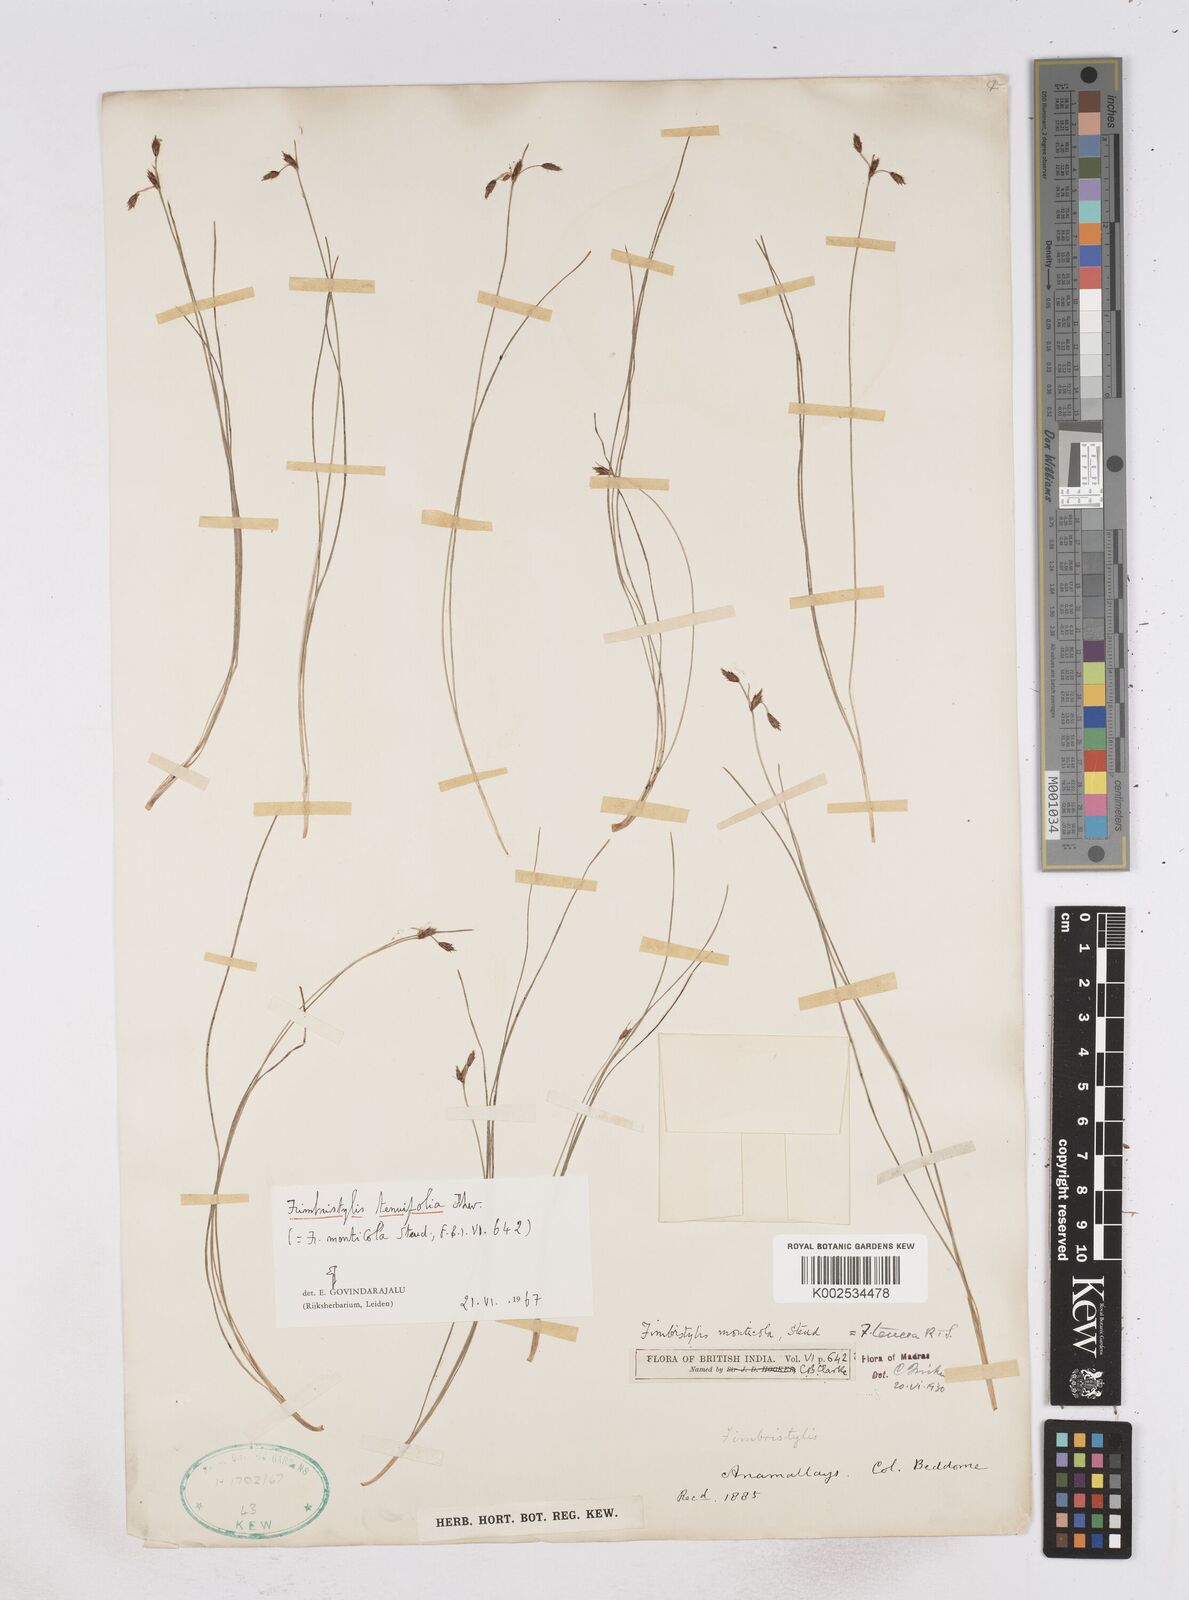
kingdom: Plantae
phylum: Tracheophyta
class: Liliopsida
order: Poales
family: Cyperaceae
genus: Fimbristylis
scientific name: Fimbristylis monticola
